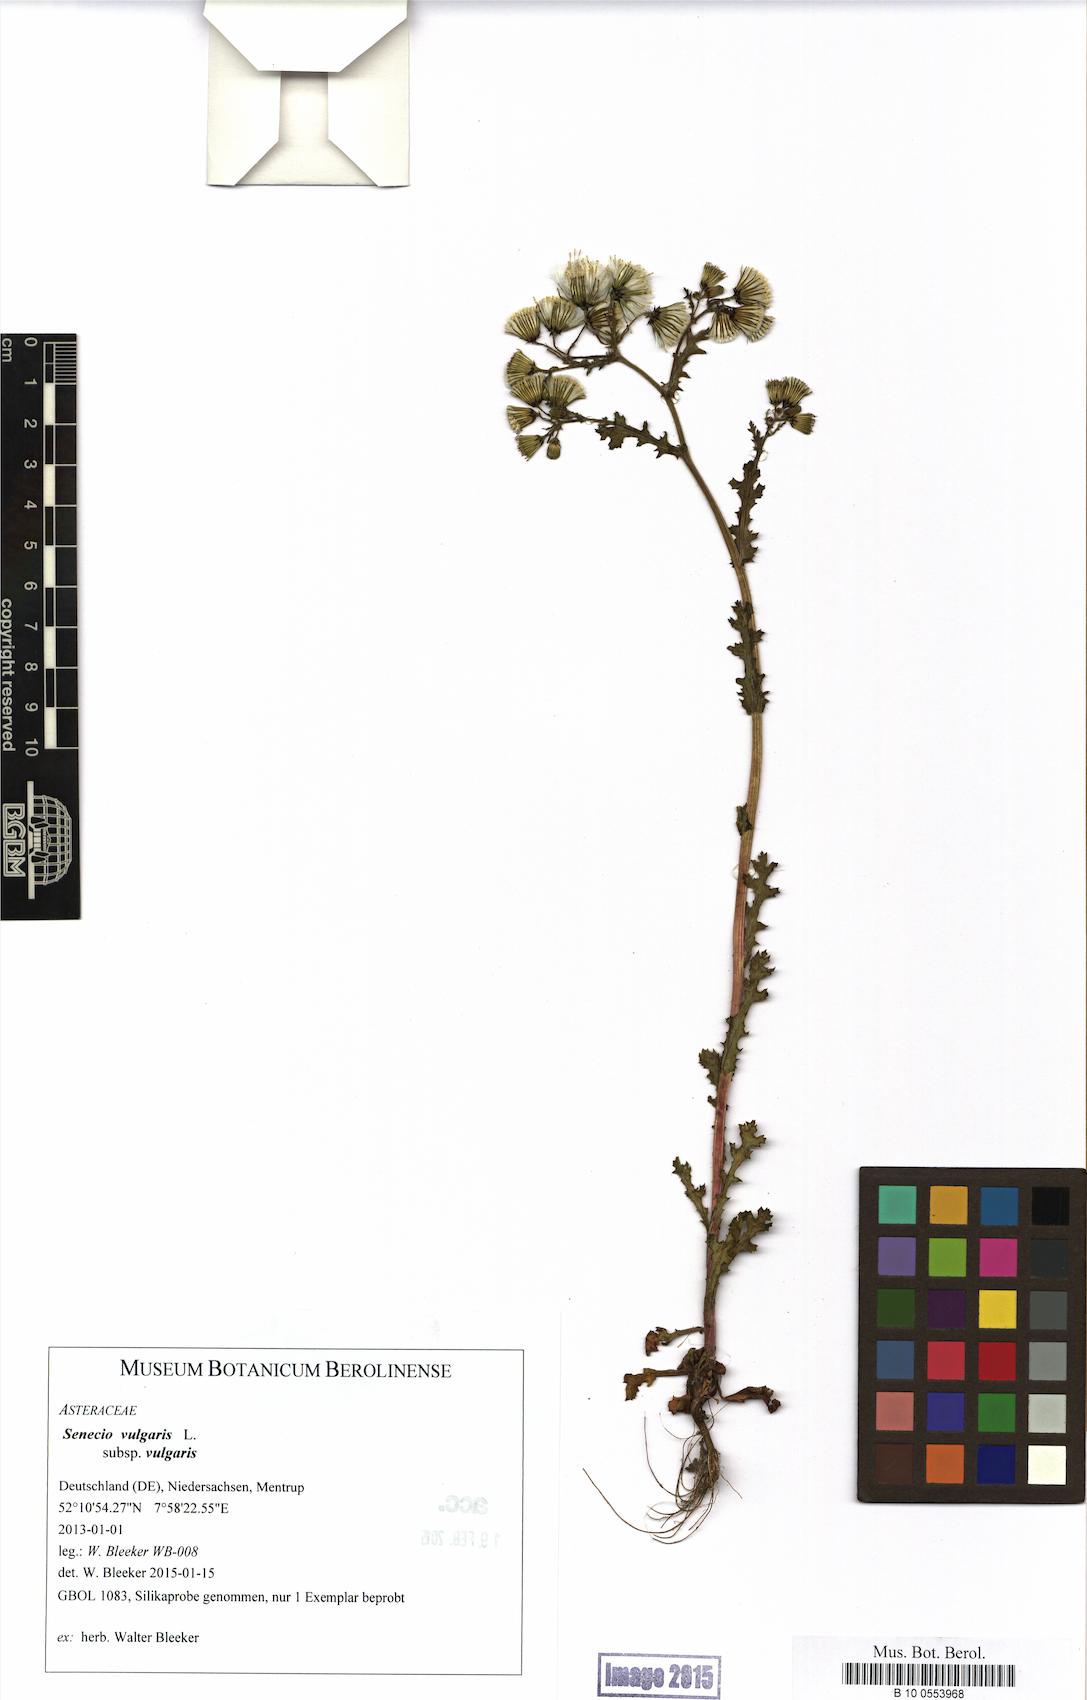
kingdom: Plantae
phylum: Tracheophyta
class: Magnoliopsida
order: Asterales
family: Asteraceae
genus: Senecio
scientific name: Senecio vulgaris
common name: Old-man-in-the-spring
